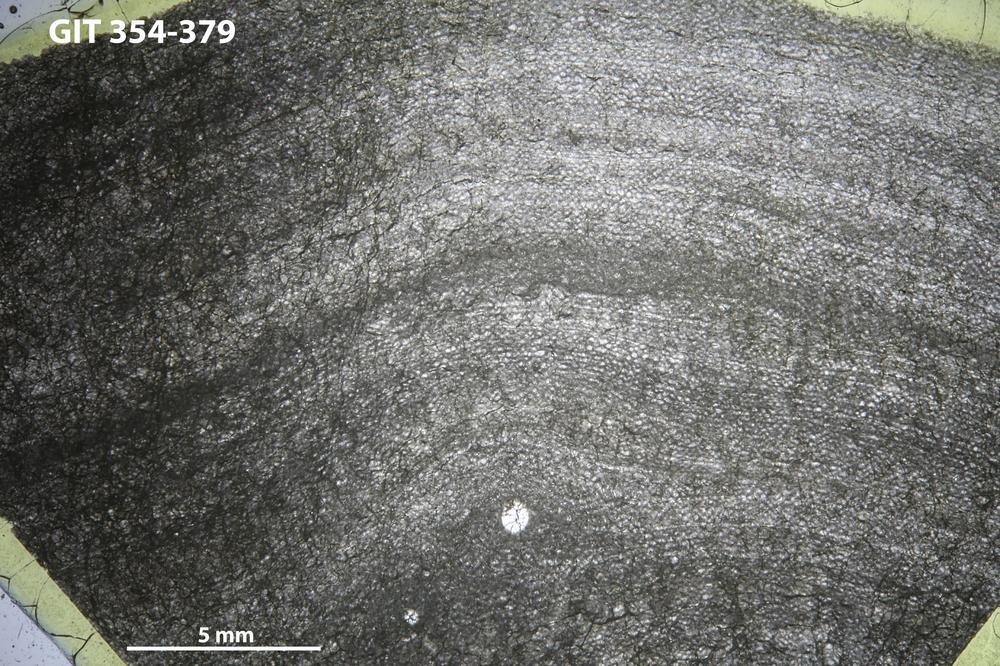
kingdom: Animalia
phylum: Porifera
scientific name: Porifera
